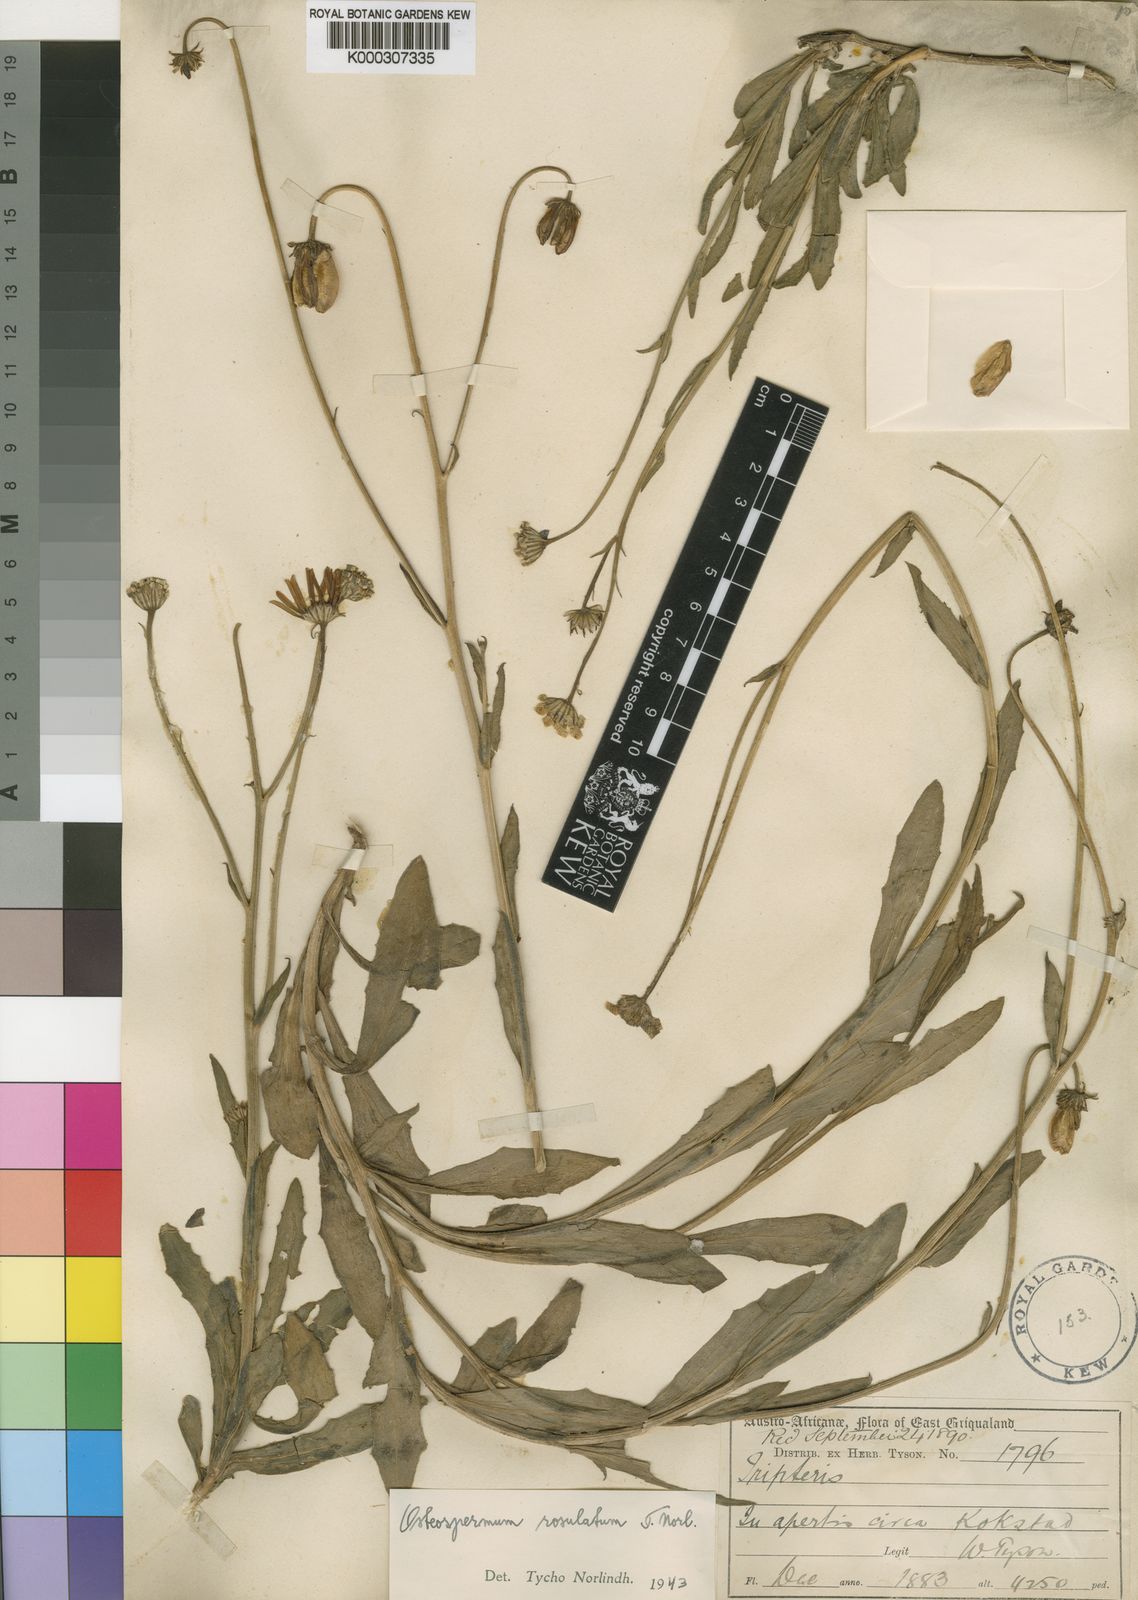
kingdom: Plantae
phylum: Tracheophyta
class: Magnoliopsida
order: Asterales
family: Asteraceae
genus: Osteospermum
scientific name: Osteospermum rosulatum
